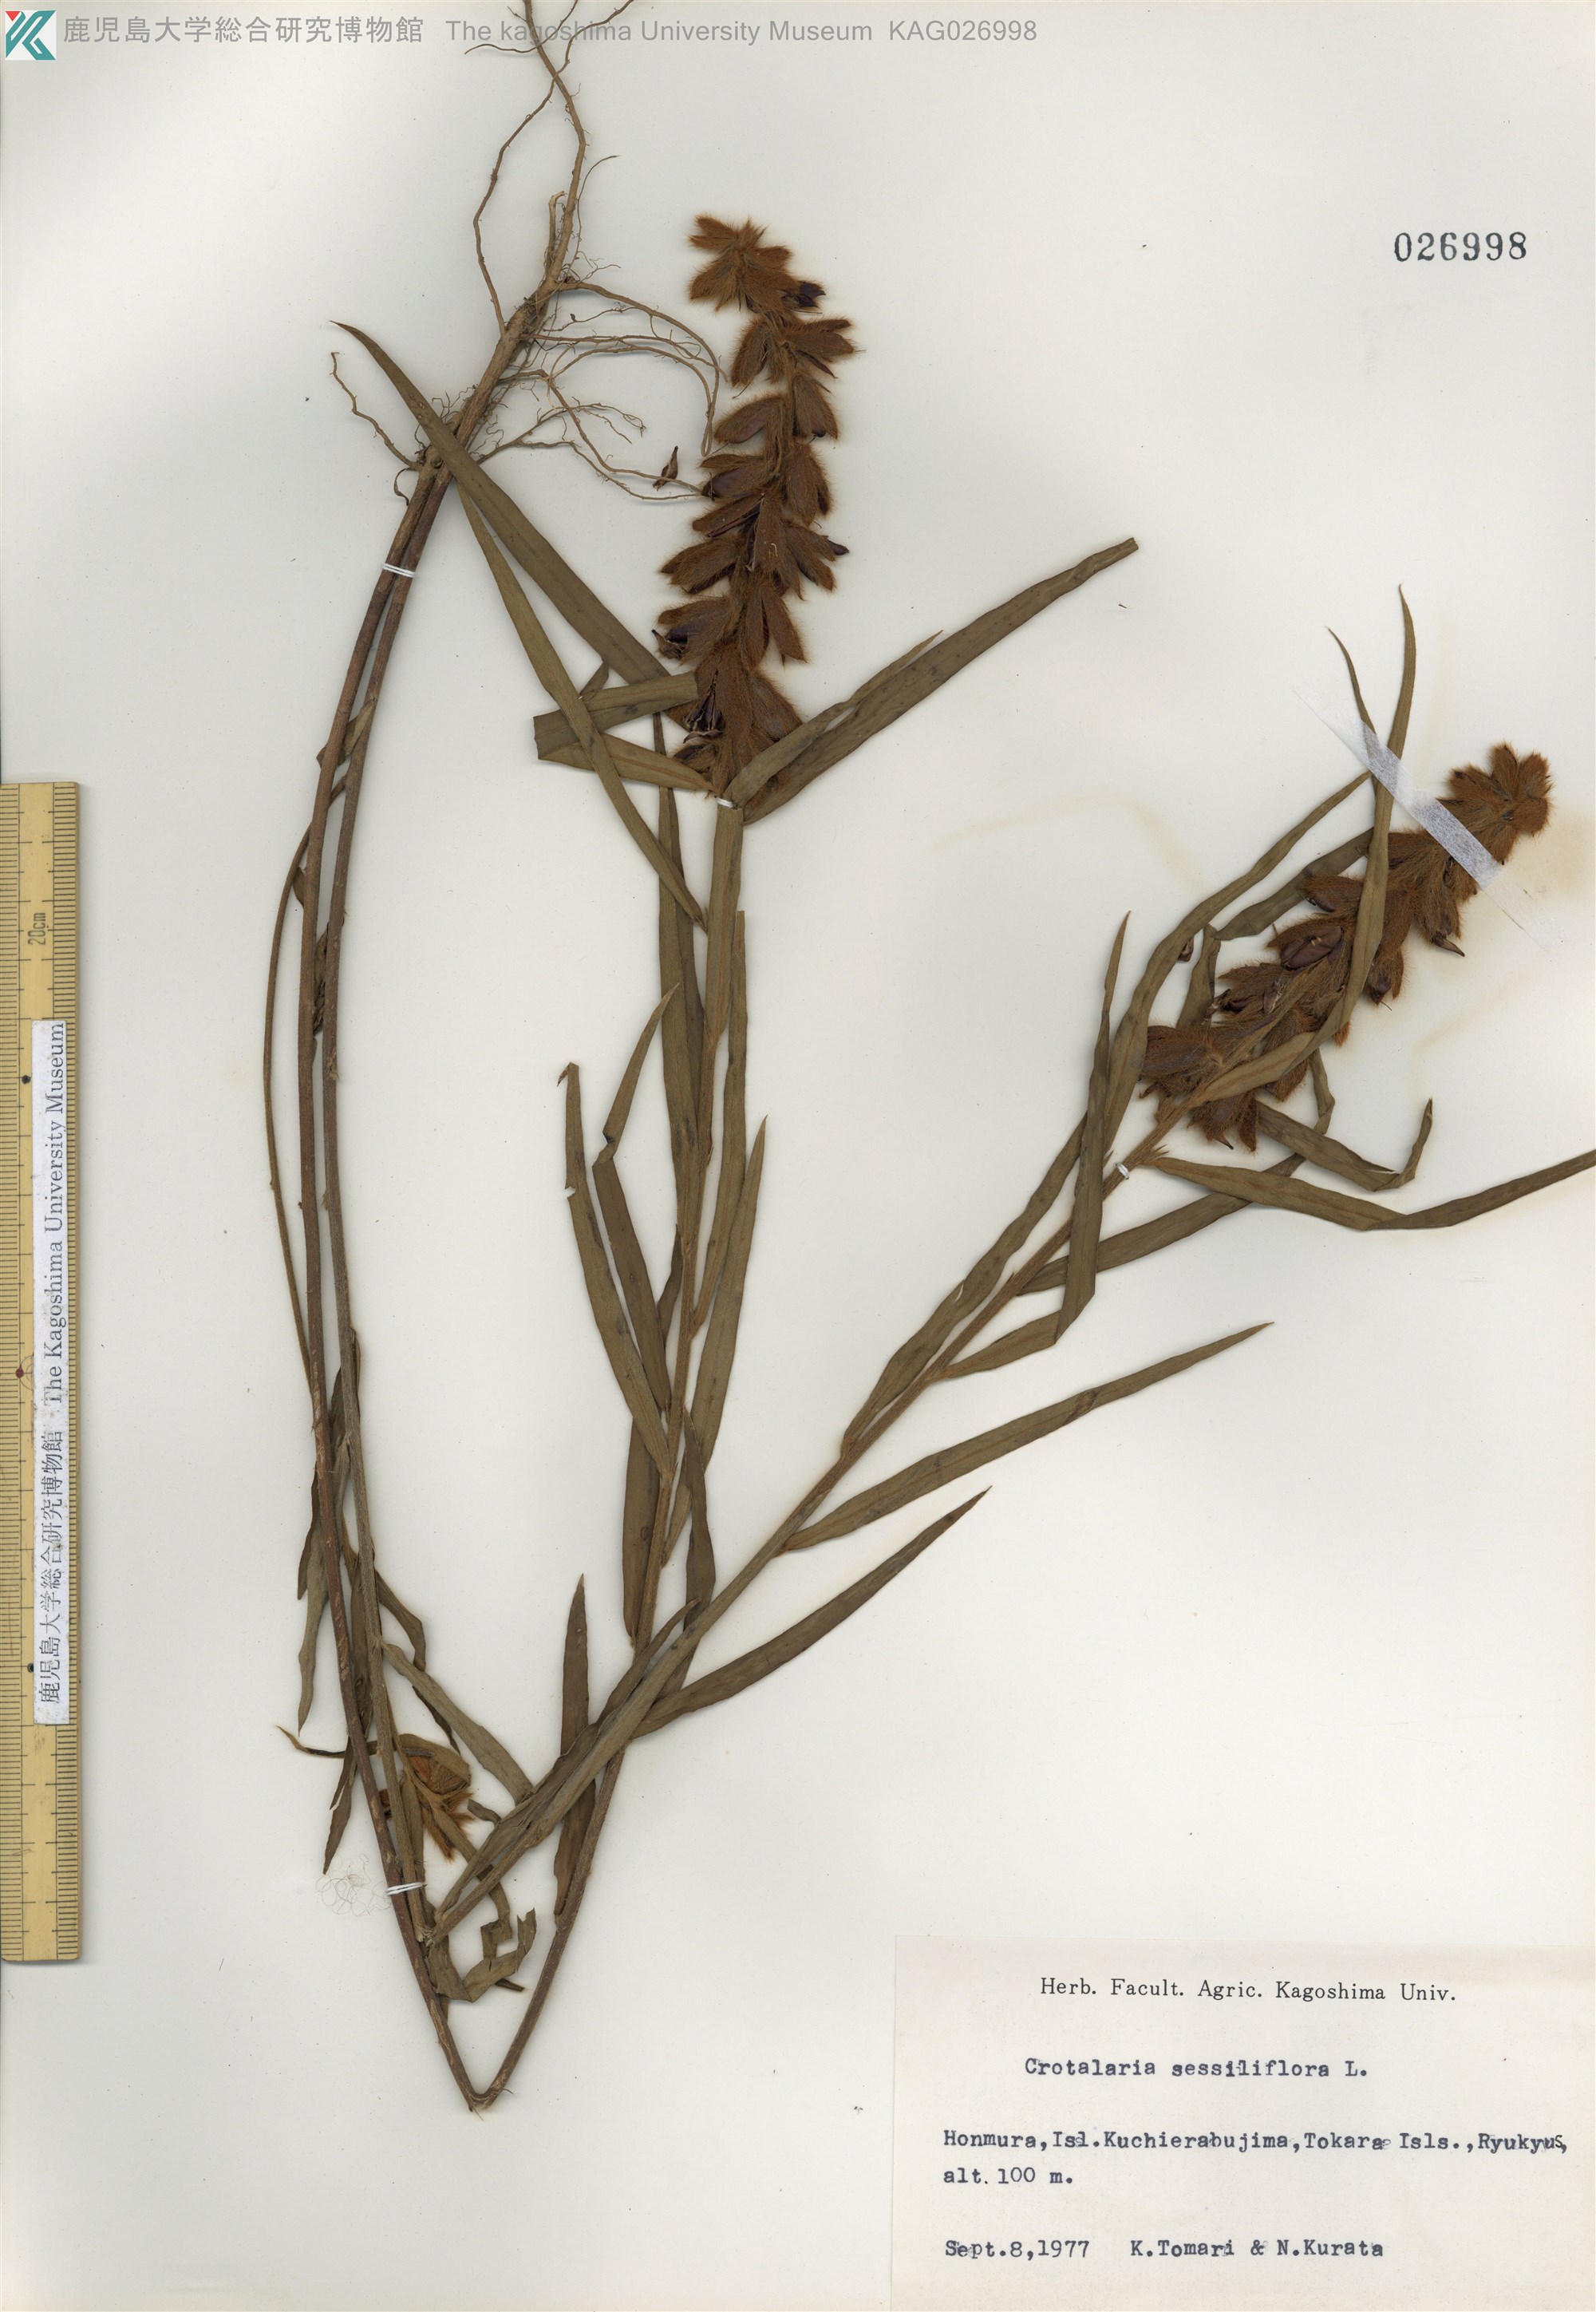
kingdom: Plantae
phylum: Tracheophyta
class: Magnoliopsida
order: Fabales
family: Fabaceae
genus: Crotalaria
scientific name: Crotalaria sessiliflora
